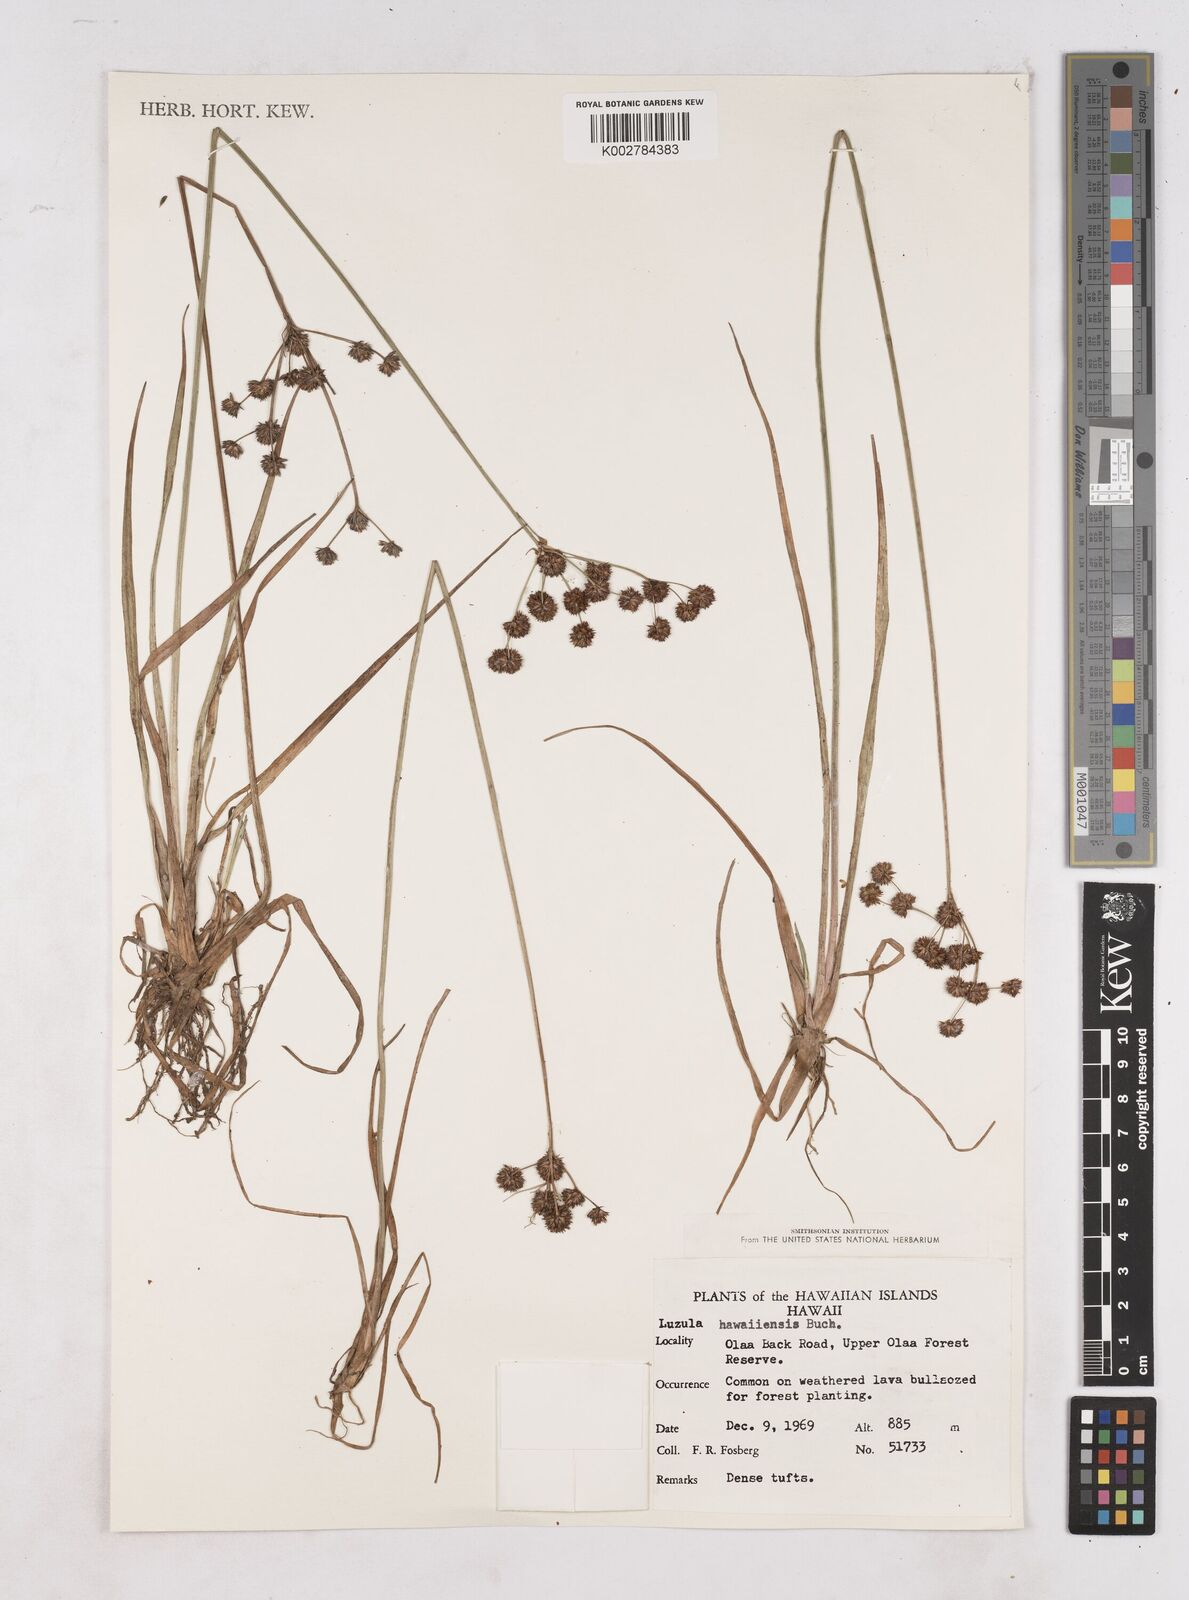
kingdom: Plantae
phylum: Tracheophyta
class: Liliopsida
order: Poales
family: Juncaceae
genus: Luzula
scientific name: Luzula campestris
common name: Field wood-rush
